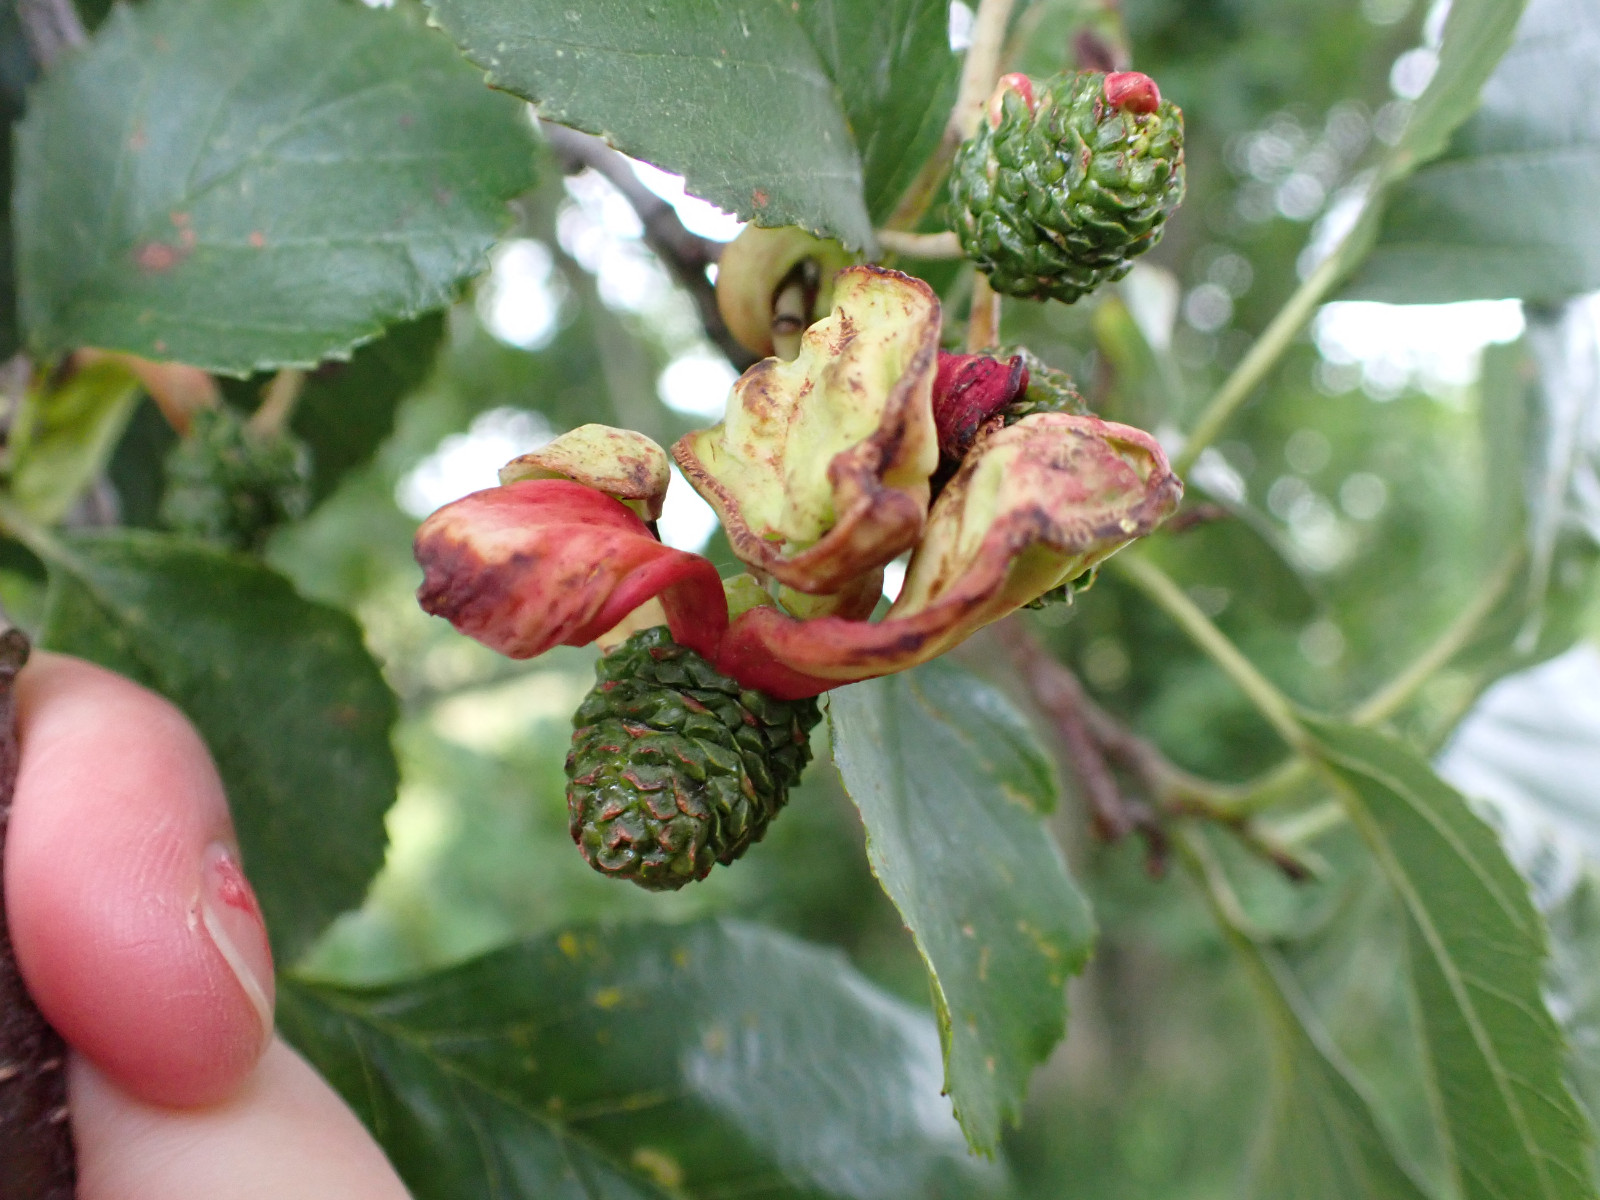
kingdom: Fungi
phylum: Ascomycota
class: Taphrinomycetes
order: Taphrinales
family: Taphrinaceae
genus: Taphrina
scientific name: Taphrina alni
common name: Alder tongue
